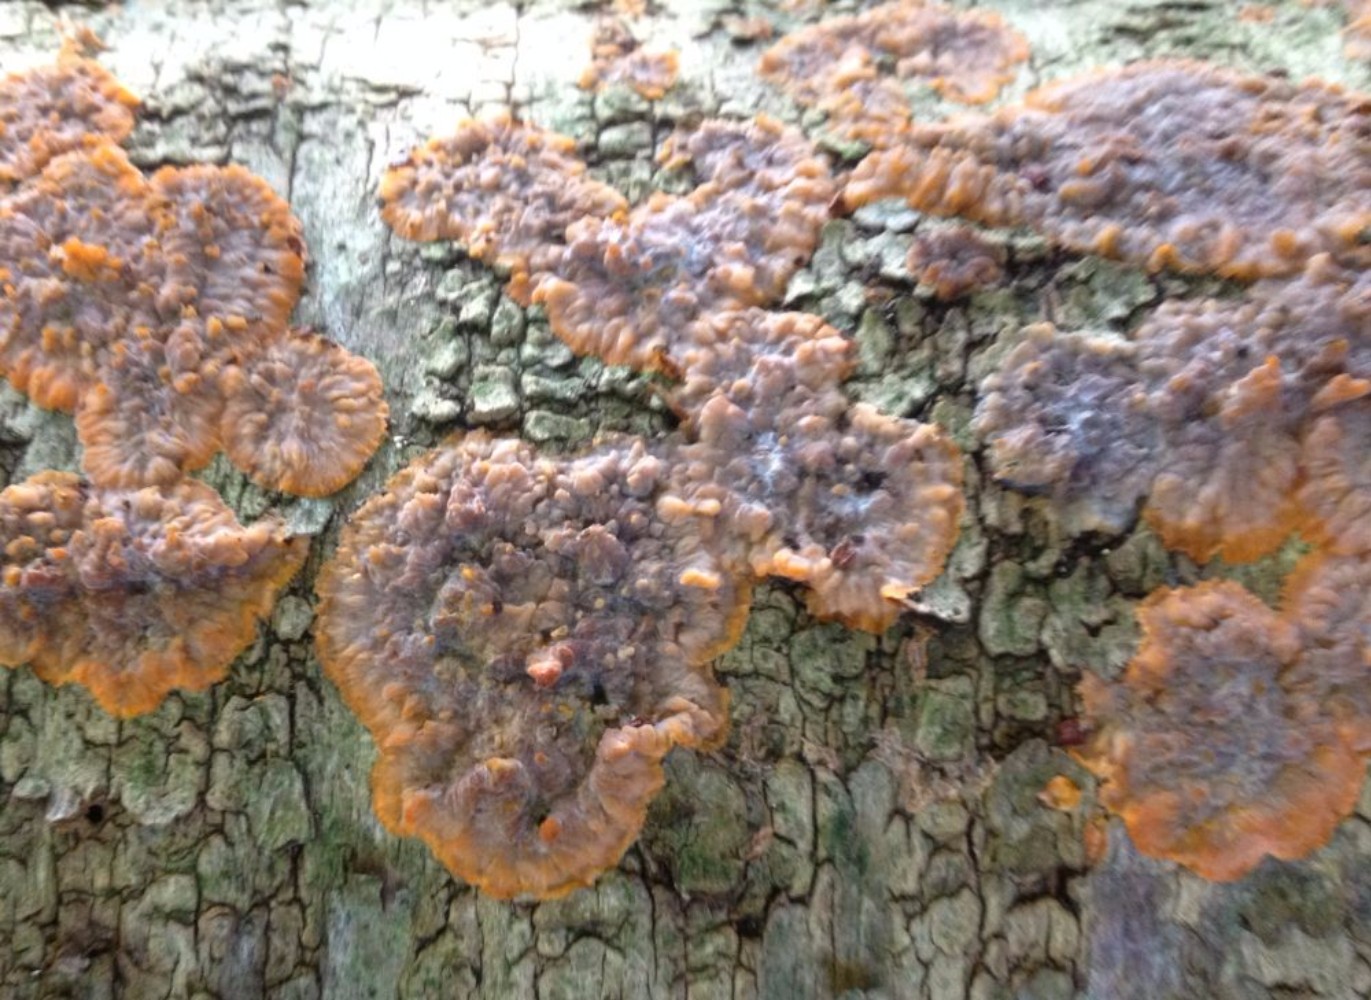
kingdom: Fungi
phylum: Basidiomycota
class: Agaricomycetes
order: Polyporales
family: Meruliaceae
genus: Phlebia
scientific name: Phlebia radiata
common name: stråle-åresvamp
